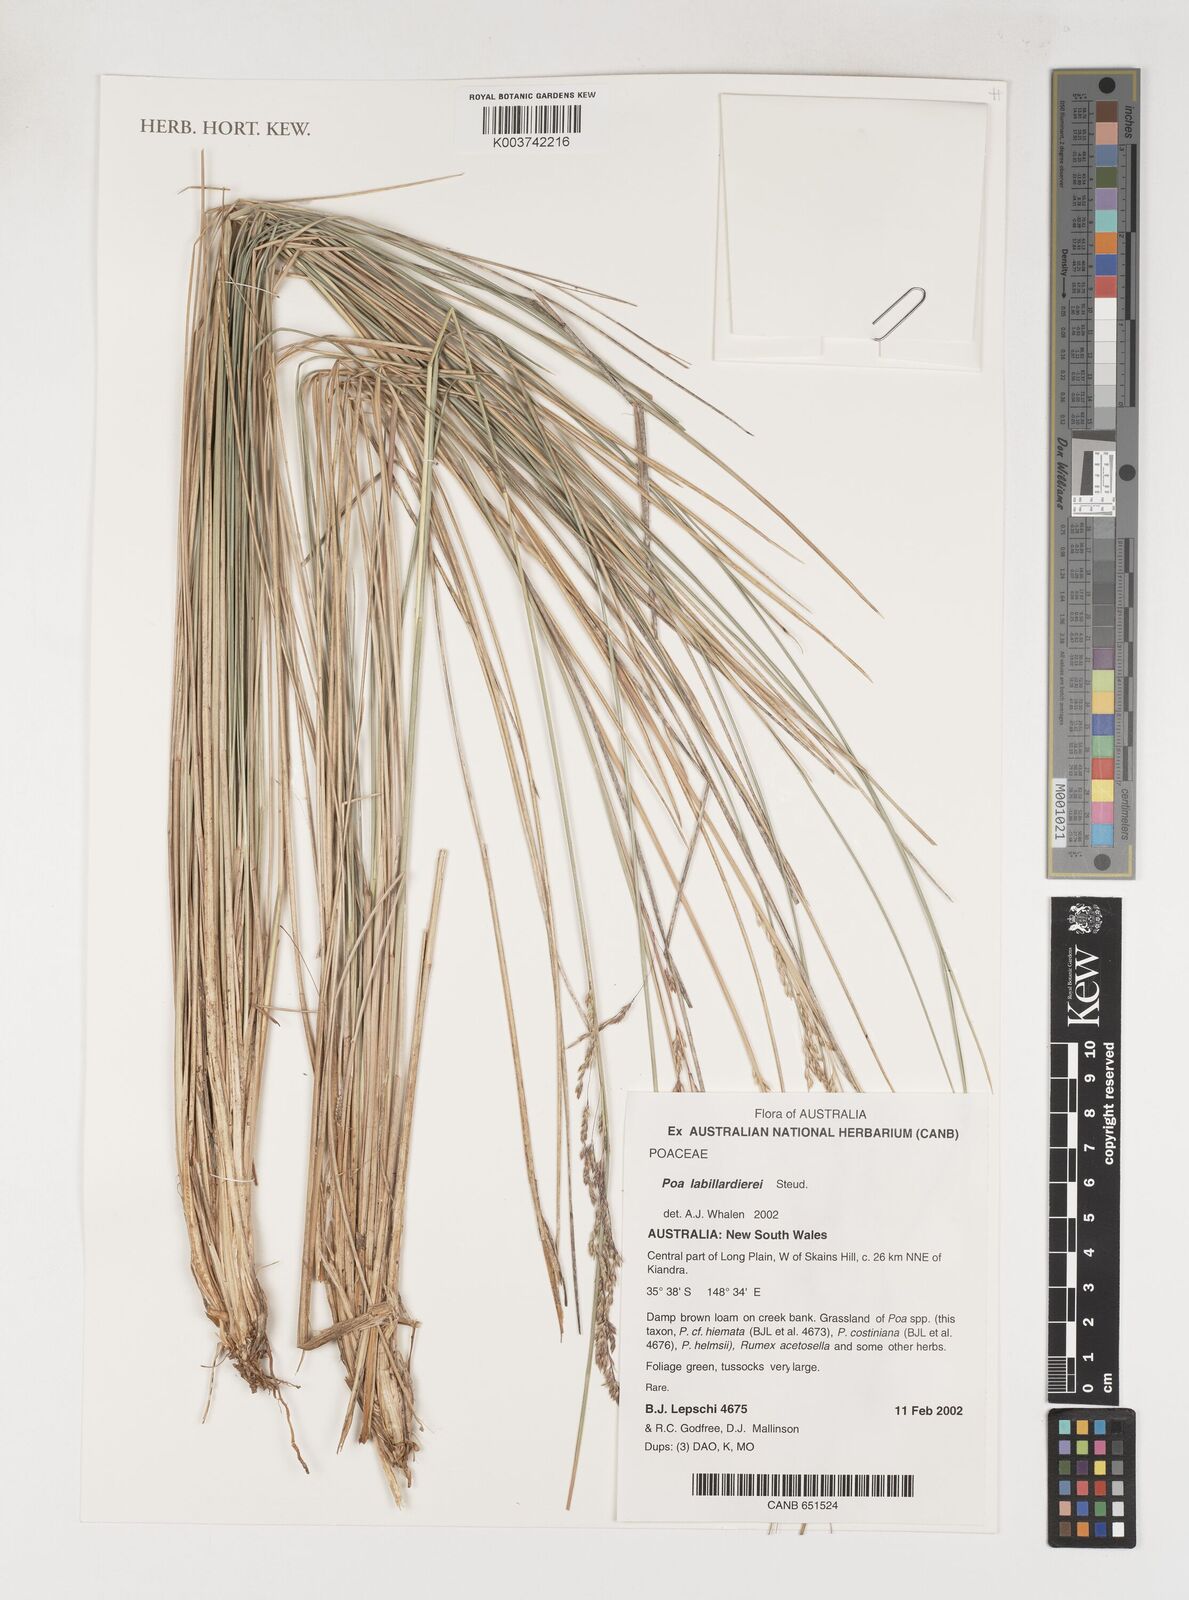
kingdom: Plantae
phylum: Tracheophyta
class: Liliopsida
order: Poales
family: Poaceae
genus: Poa
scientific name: Poa labillardierei
